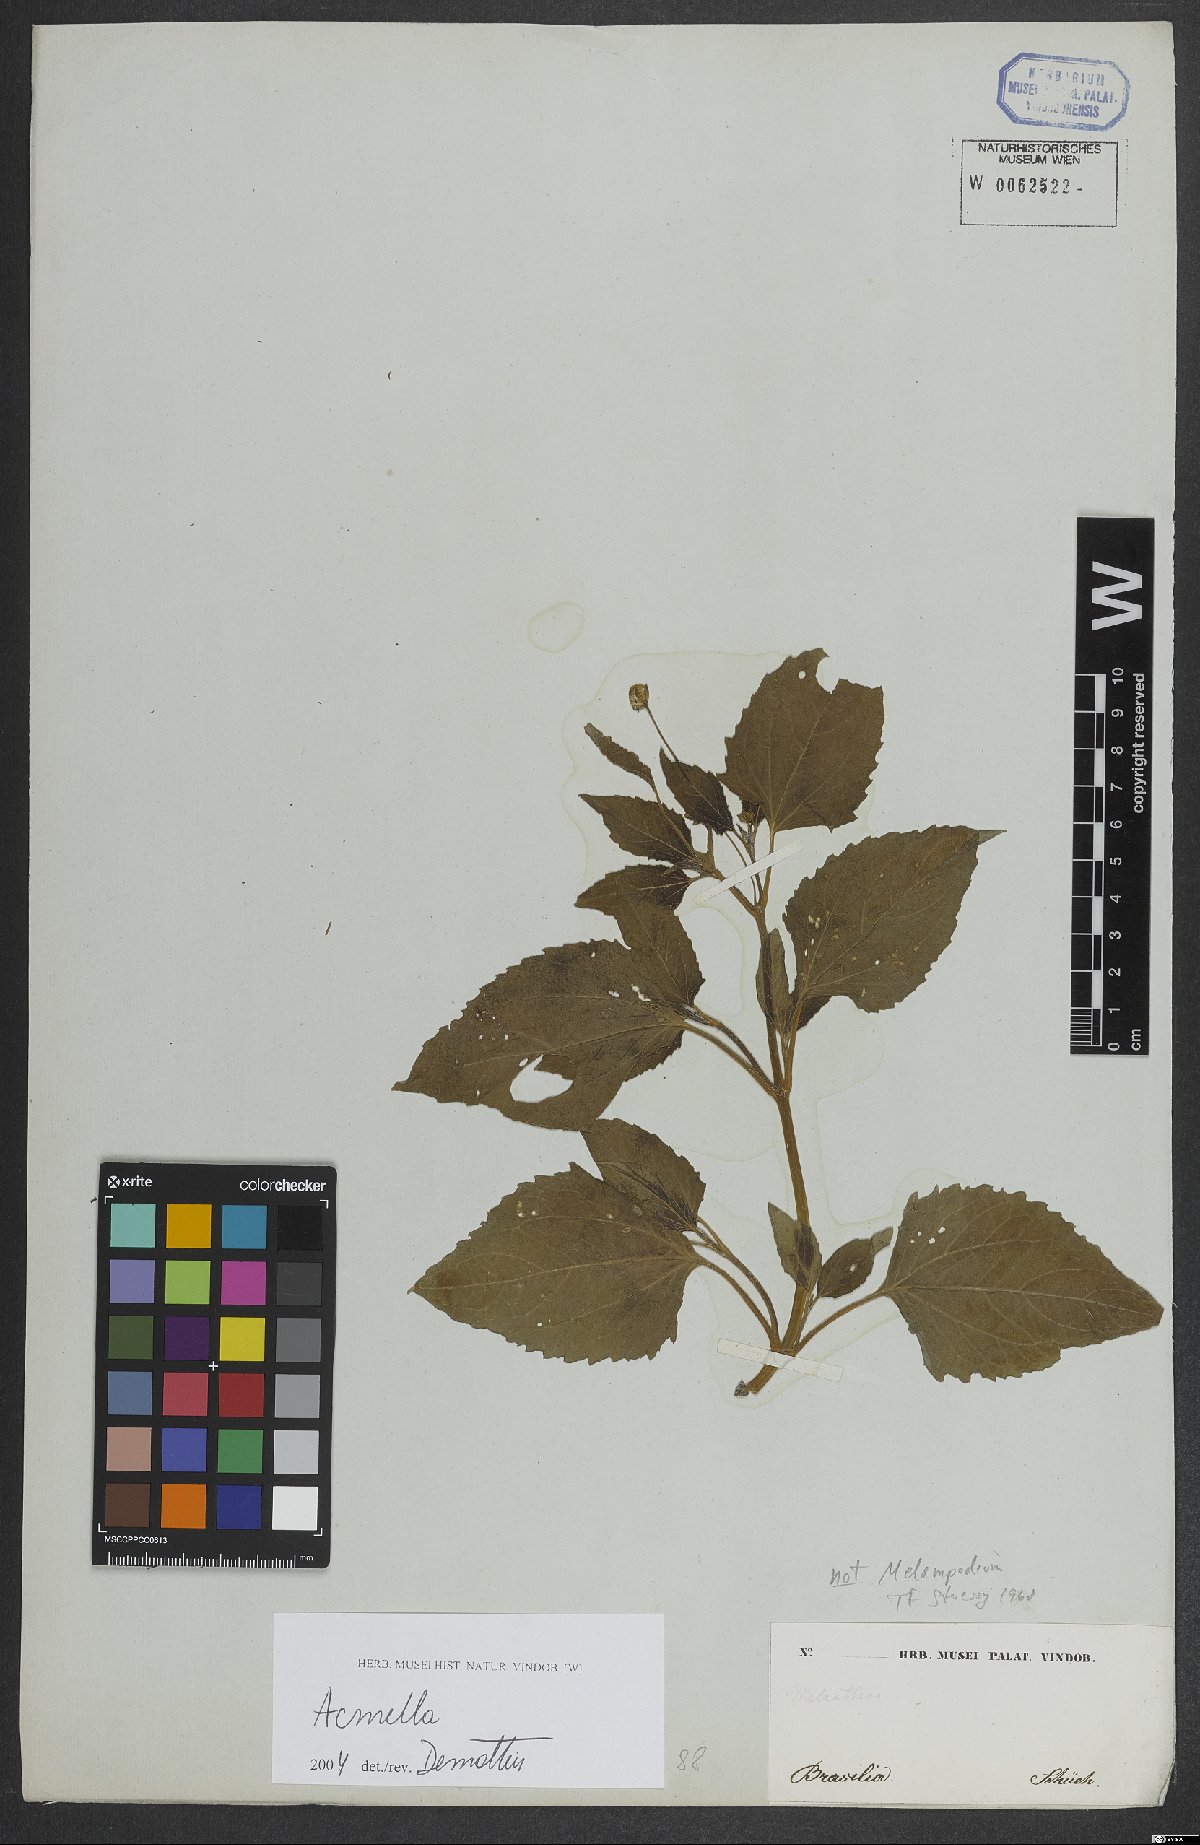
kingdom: Plantae
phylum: Tracheophyta
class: Magnoliopsida
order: Asterales
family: Asteraceae
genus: Acmella
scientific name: Acmella
